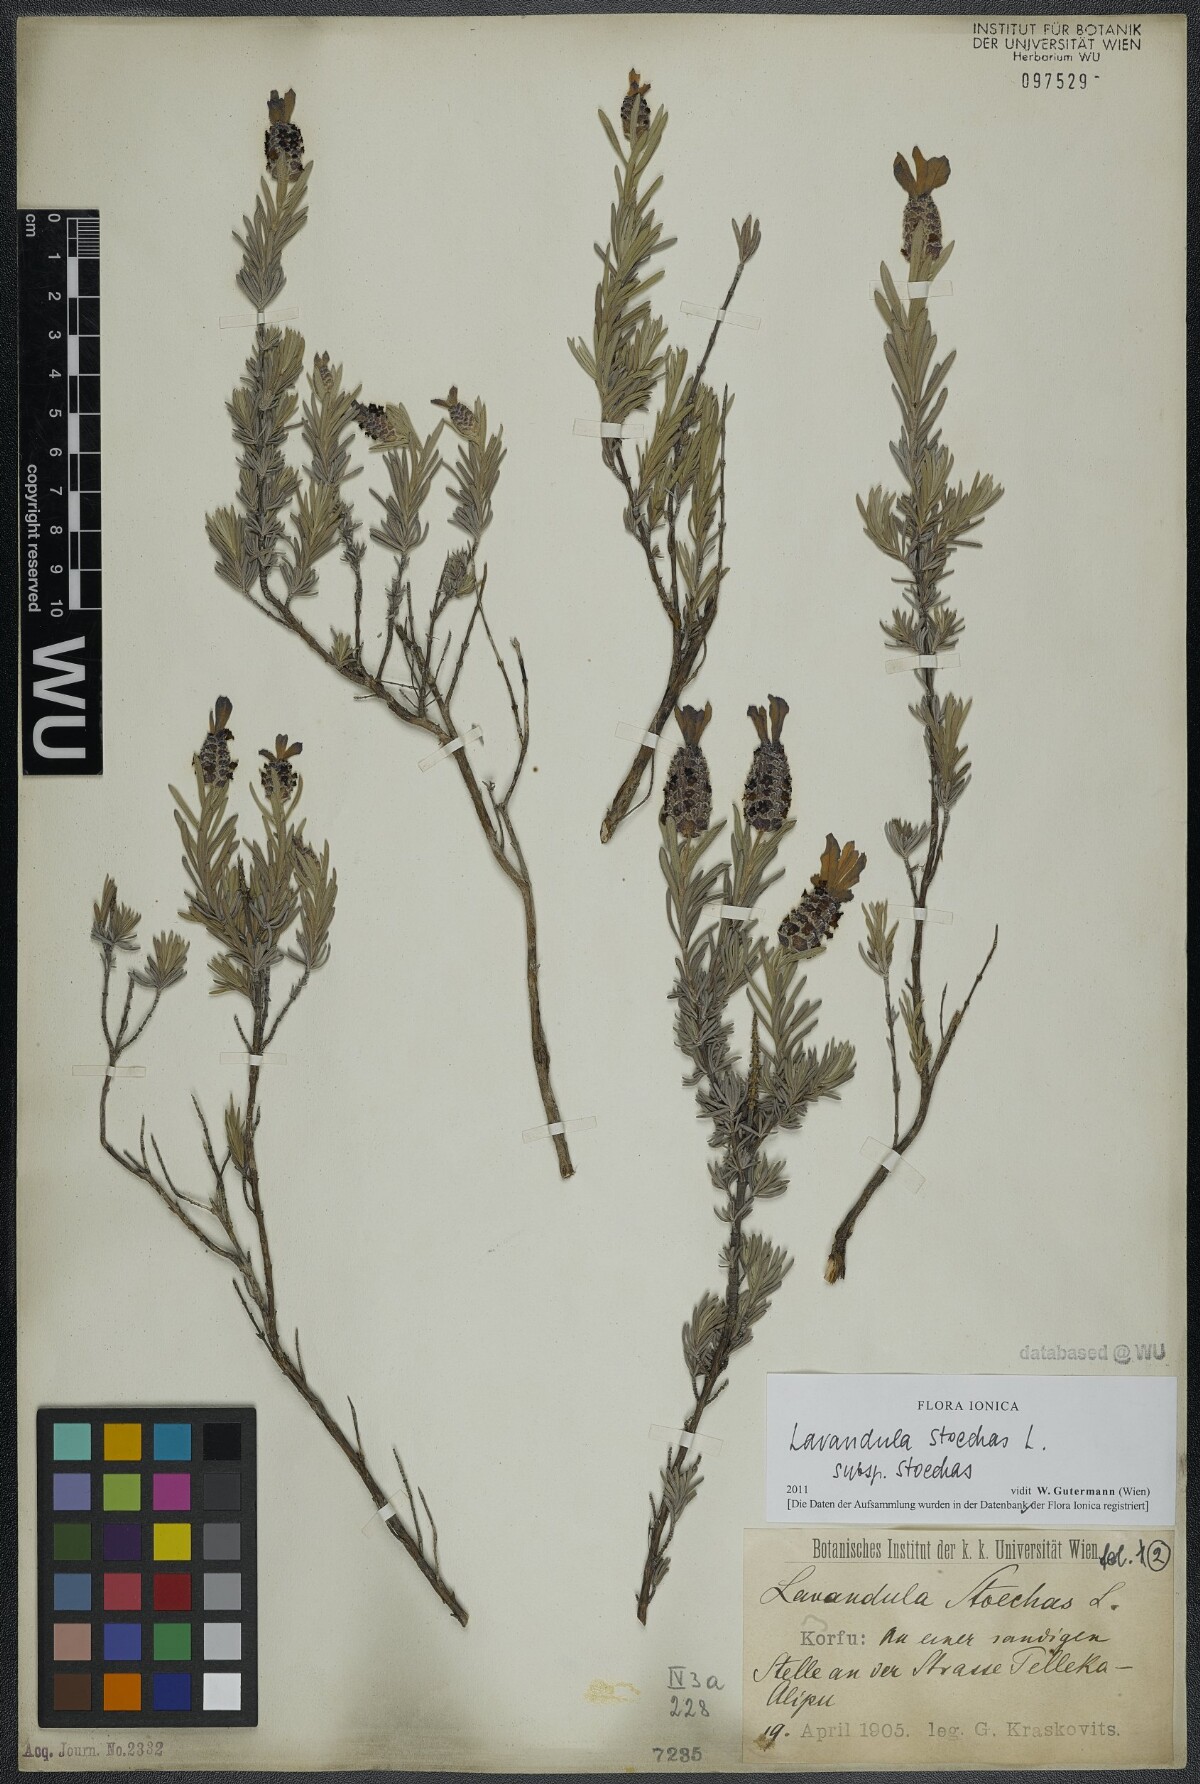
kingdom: Plantae
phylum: Tracheophyta
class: Magnoliopsida
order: Lamiales
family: Lamiaceae
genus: Lavandula
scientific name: Lavandula stoechas
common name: French lavender
